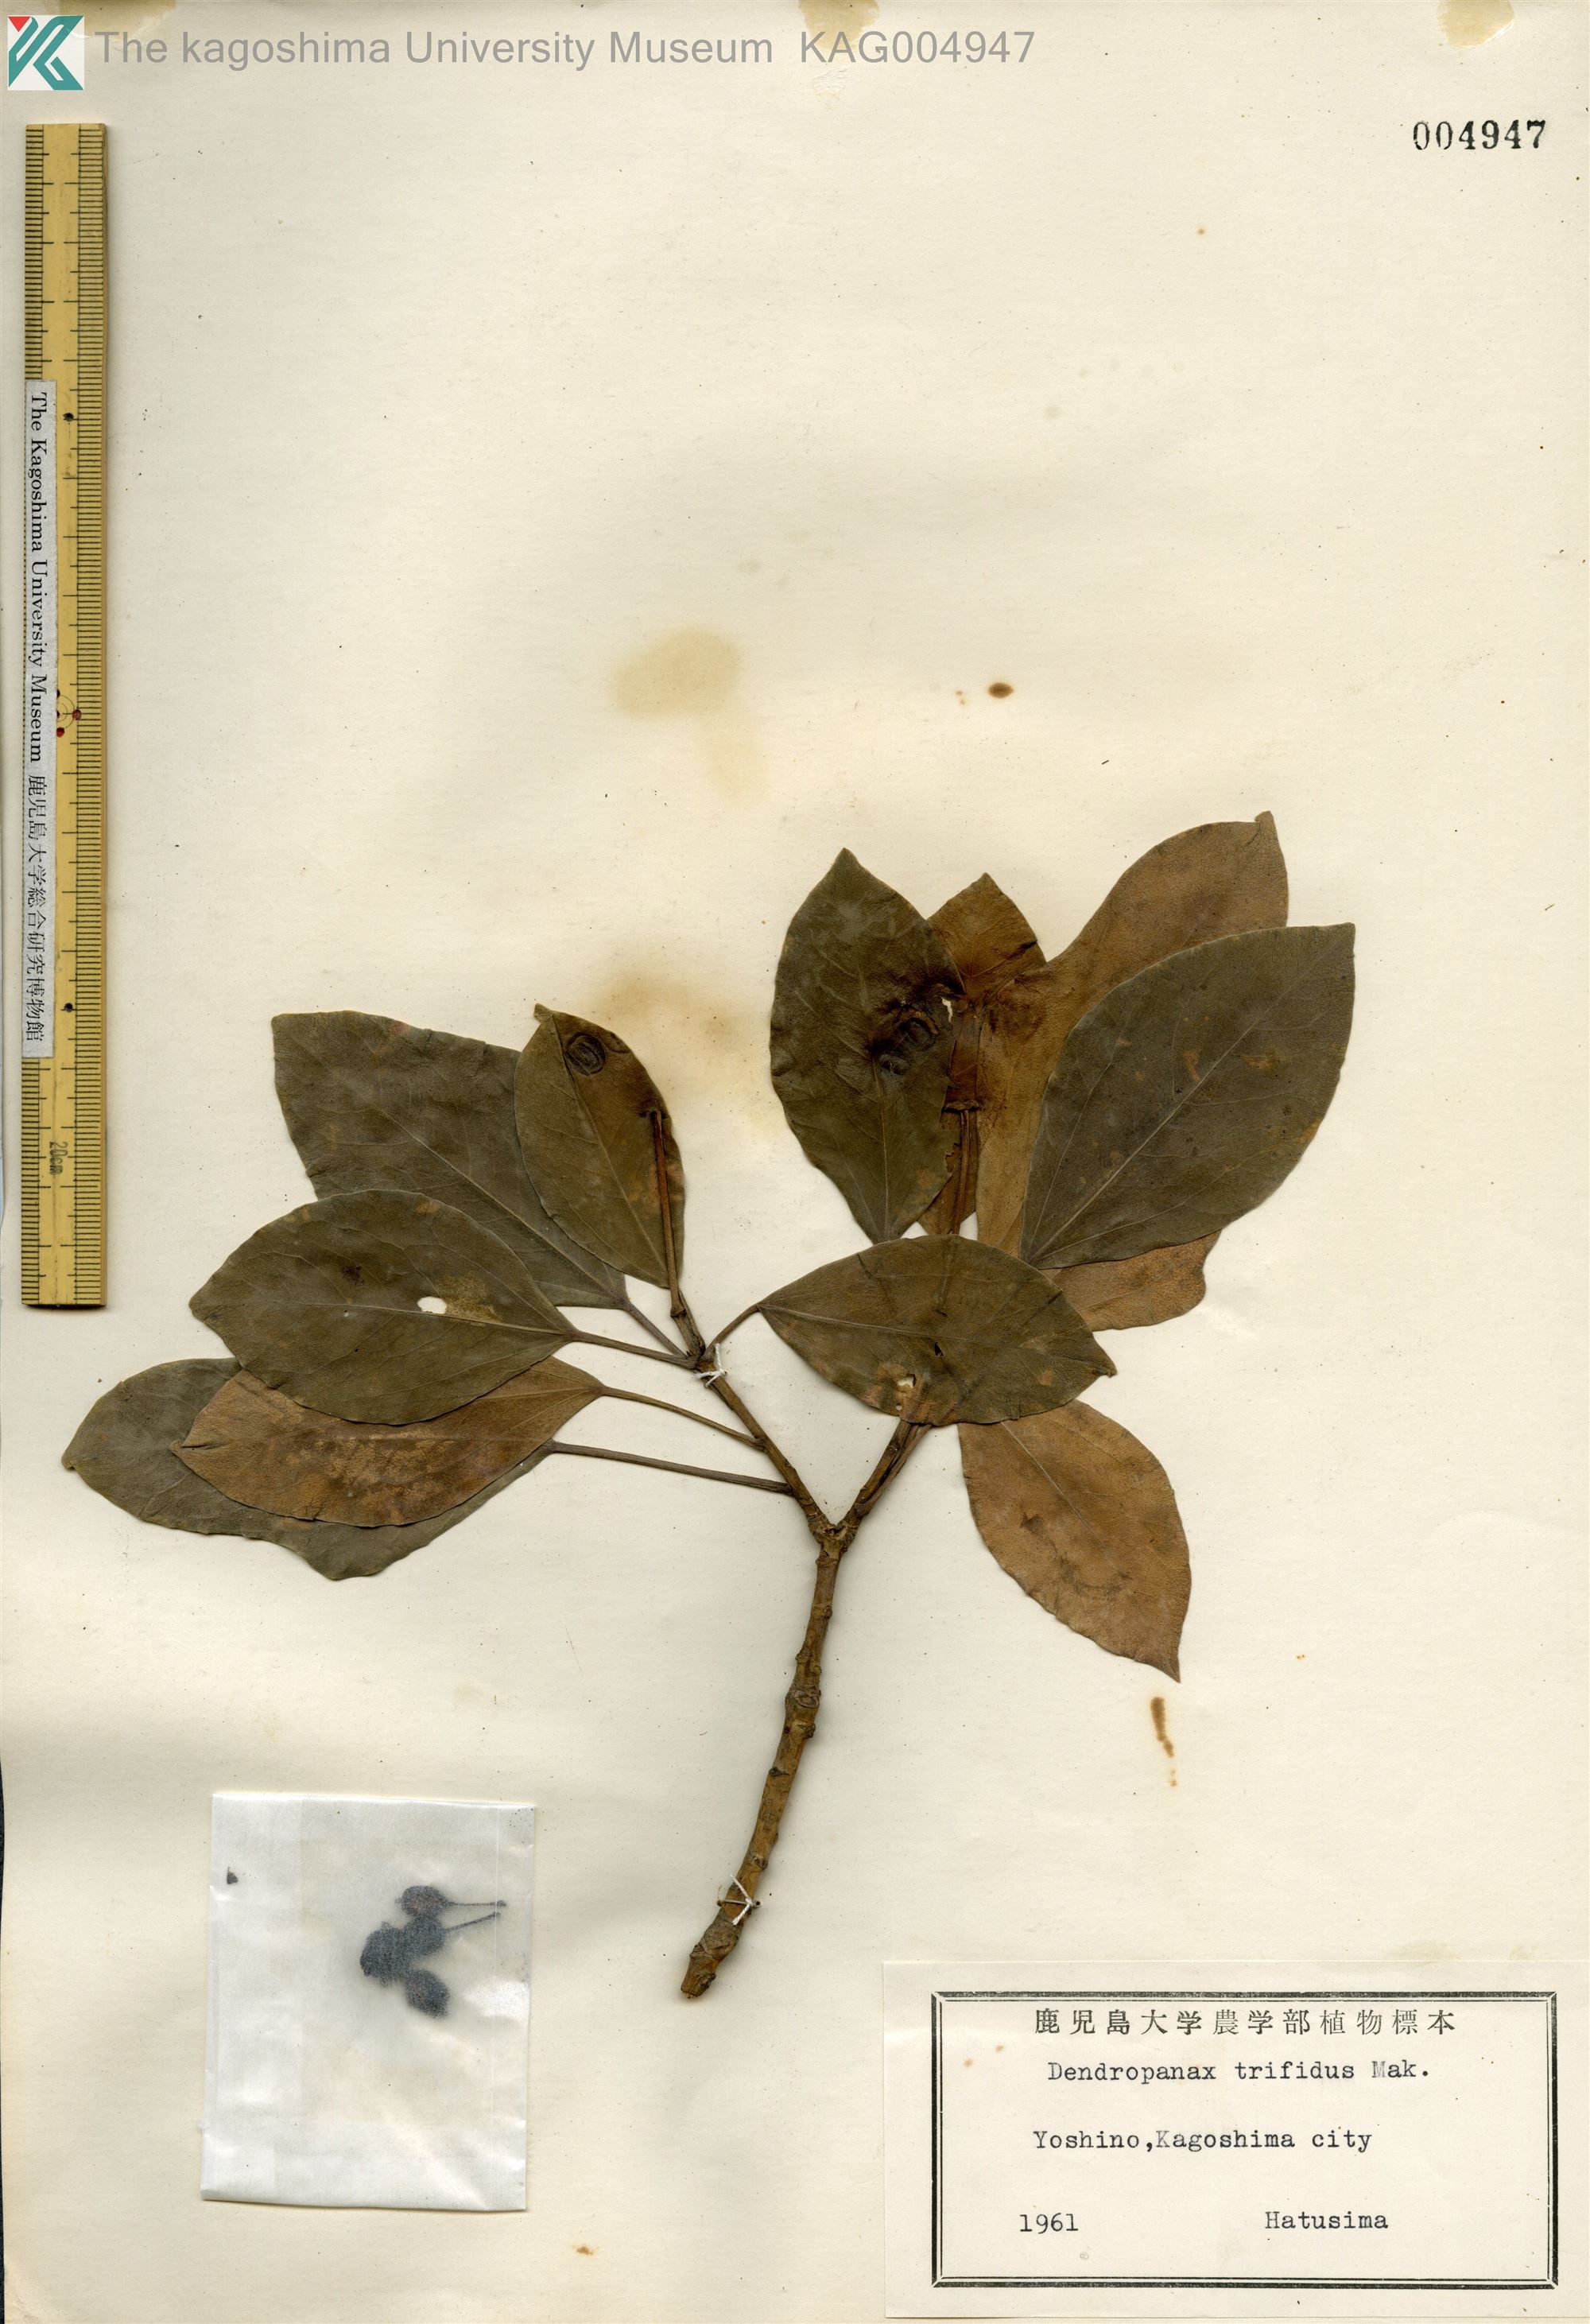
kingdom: Plantae
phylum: Tracheophyta
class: Magnoliopsida
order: Apiales
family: Araliaceae
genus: Dendropanax
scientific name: Dendropanax trifidus
